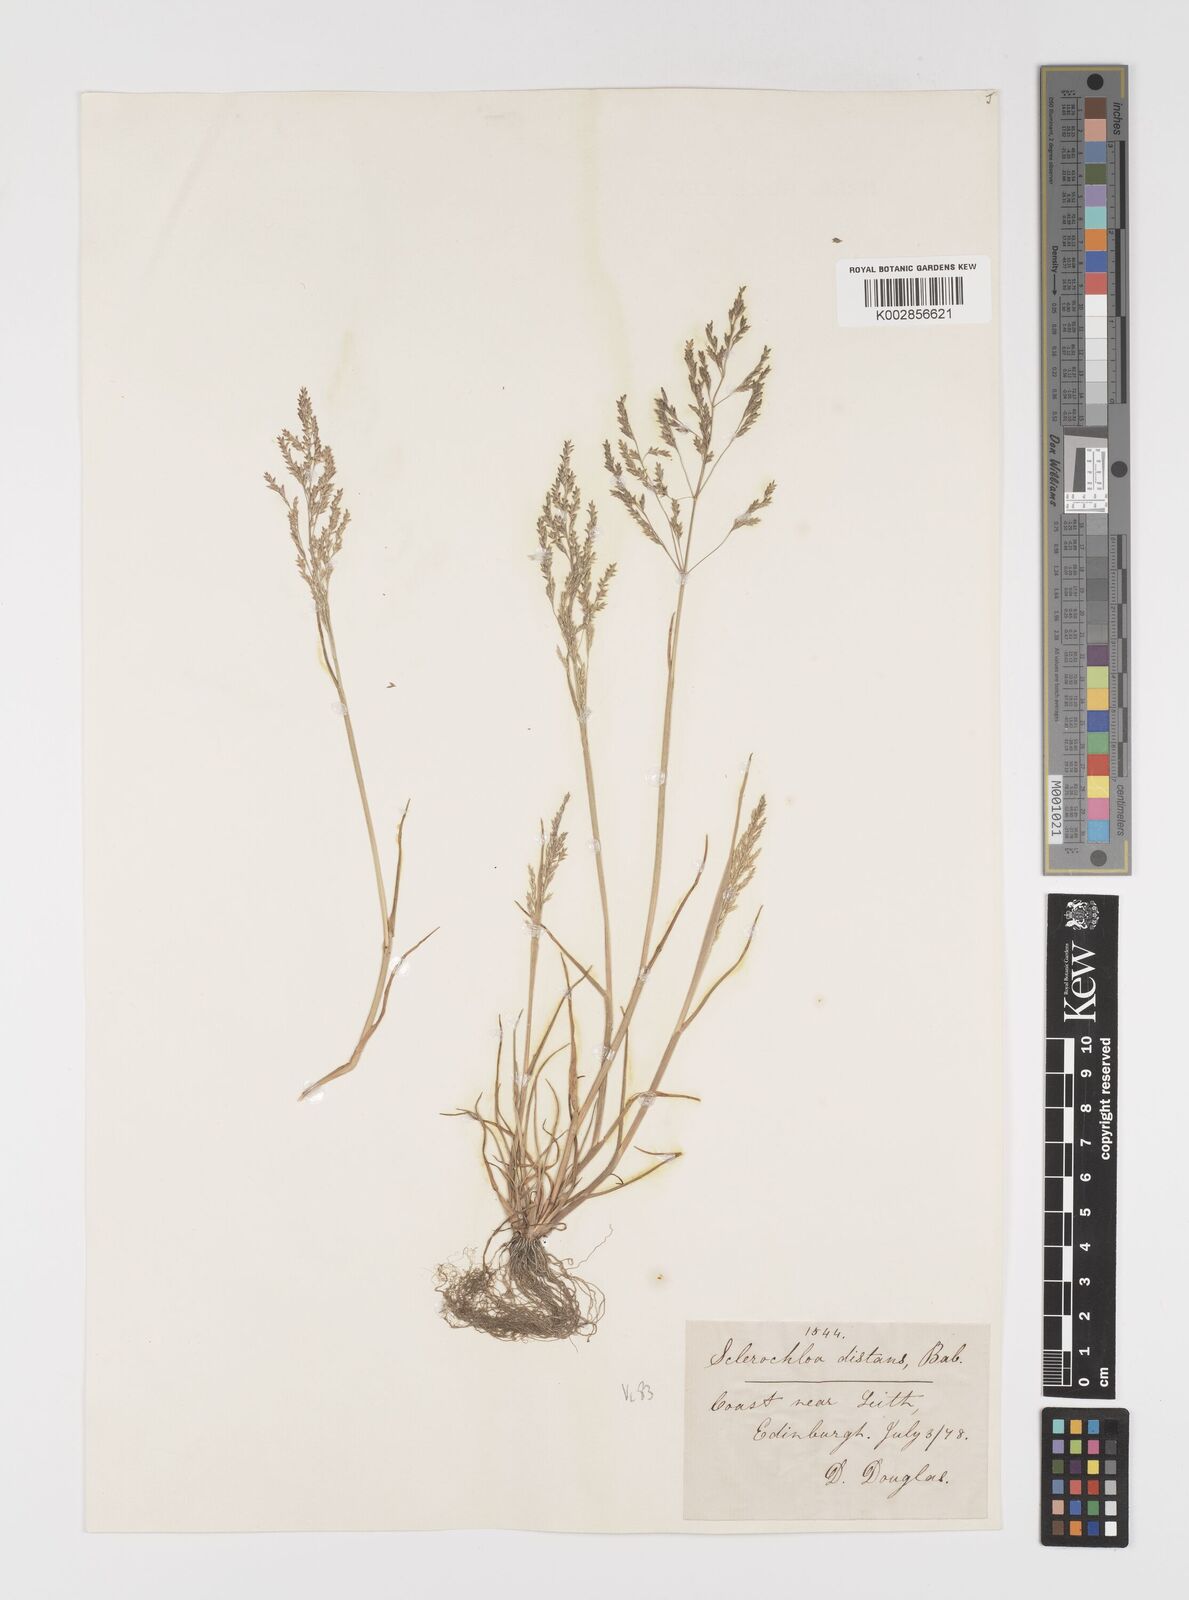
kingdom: Plantae
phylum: Tracheophyta
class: Liliopsida
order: Poales
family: Poaceae
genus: Puccinellia
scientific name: Puccinellia distans
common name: Weeping alkaligrass
